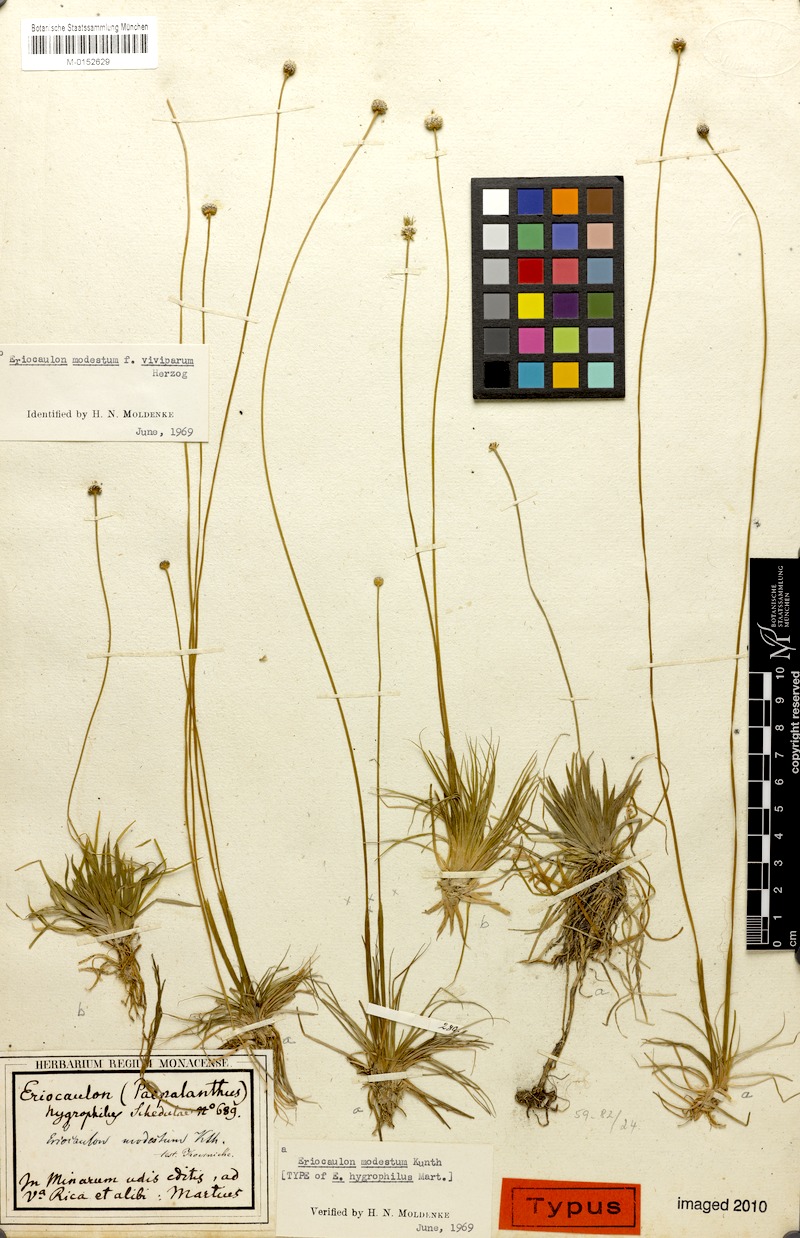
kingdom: Plantae
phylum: Tracheophyta
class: Liliopsida
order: Poales
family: Eriocaulaceae
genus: Eriocaulon
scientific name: Eriocaulon modestum
